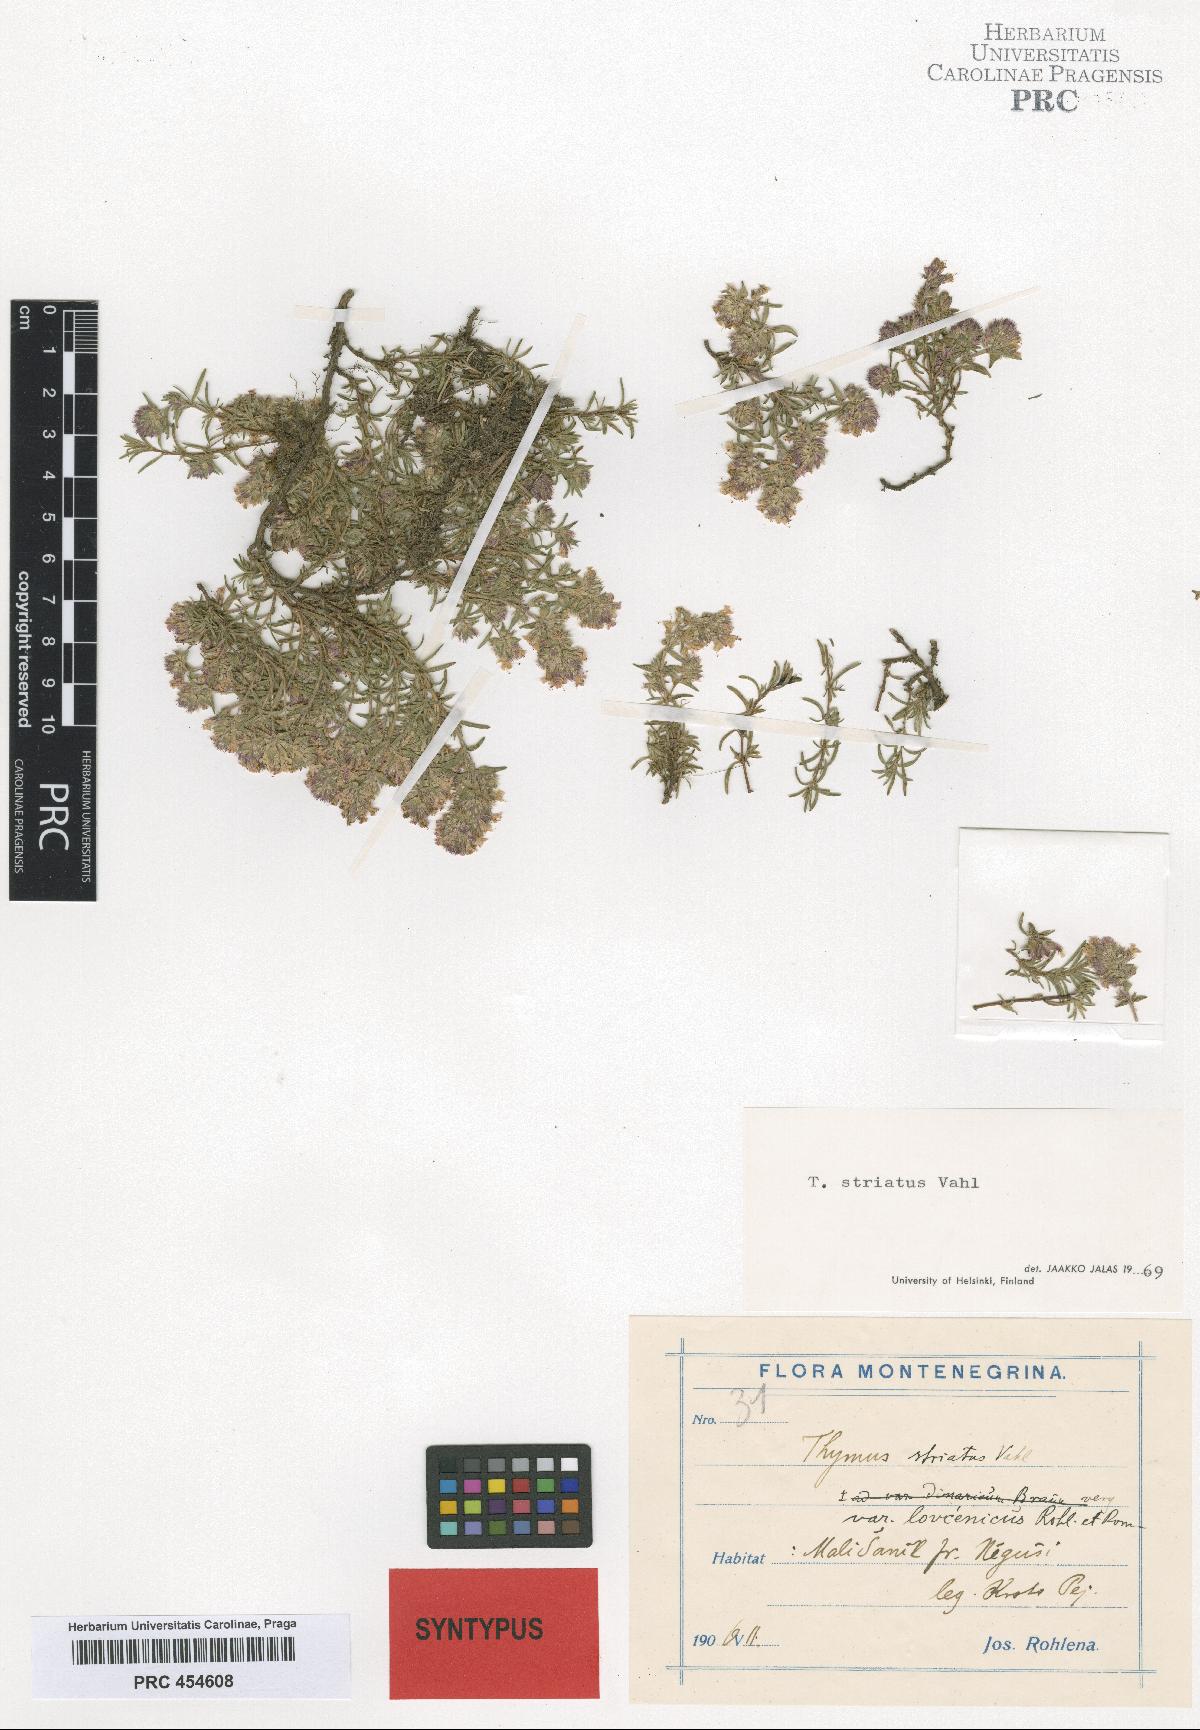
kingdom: Plantae
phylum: Tracheophyta
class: Magnoliopsida
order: Lamiales
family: Lamiaceae
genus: Thymus
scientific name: Thymus striatus
